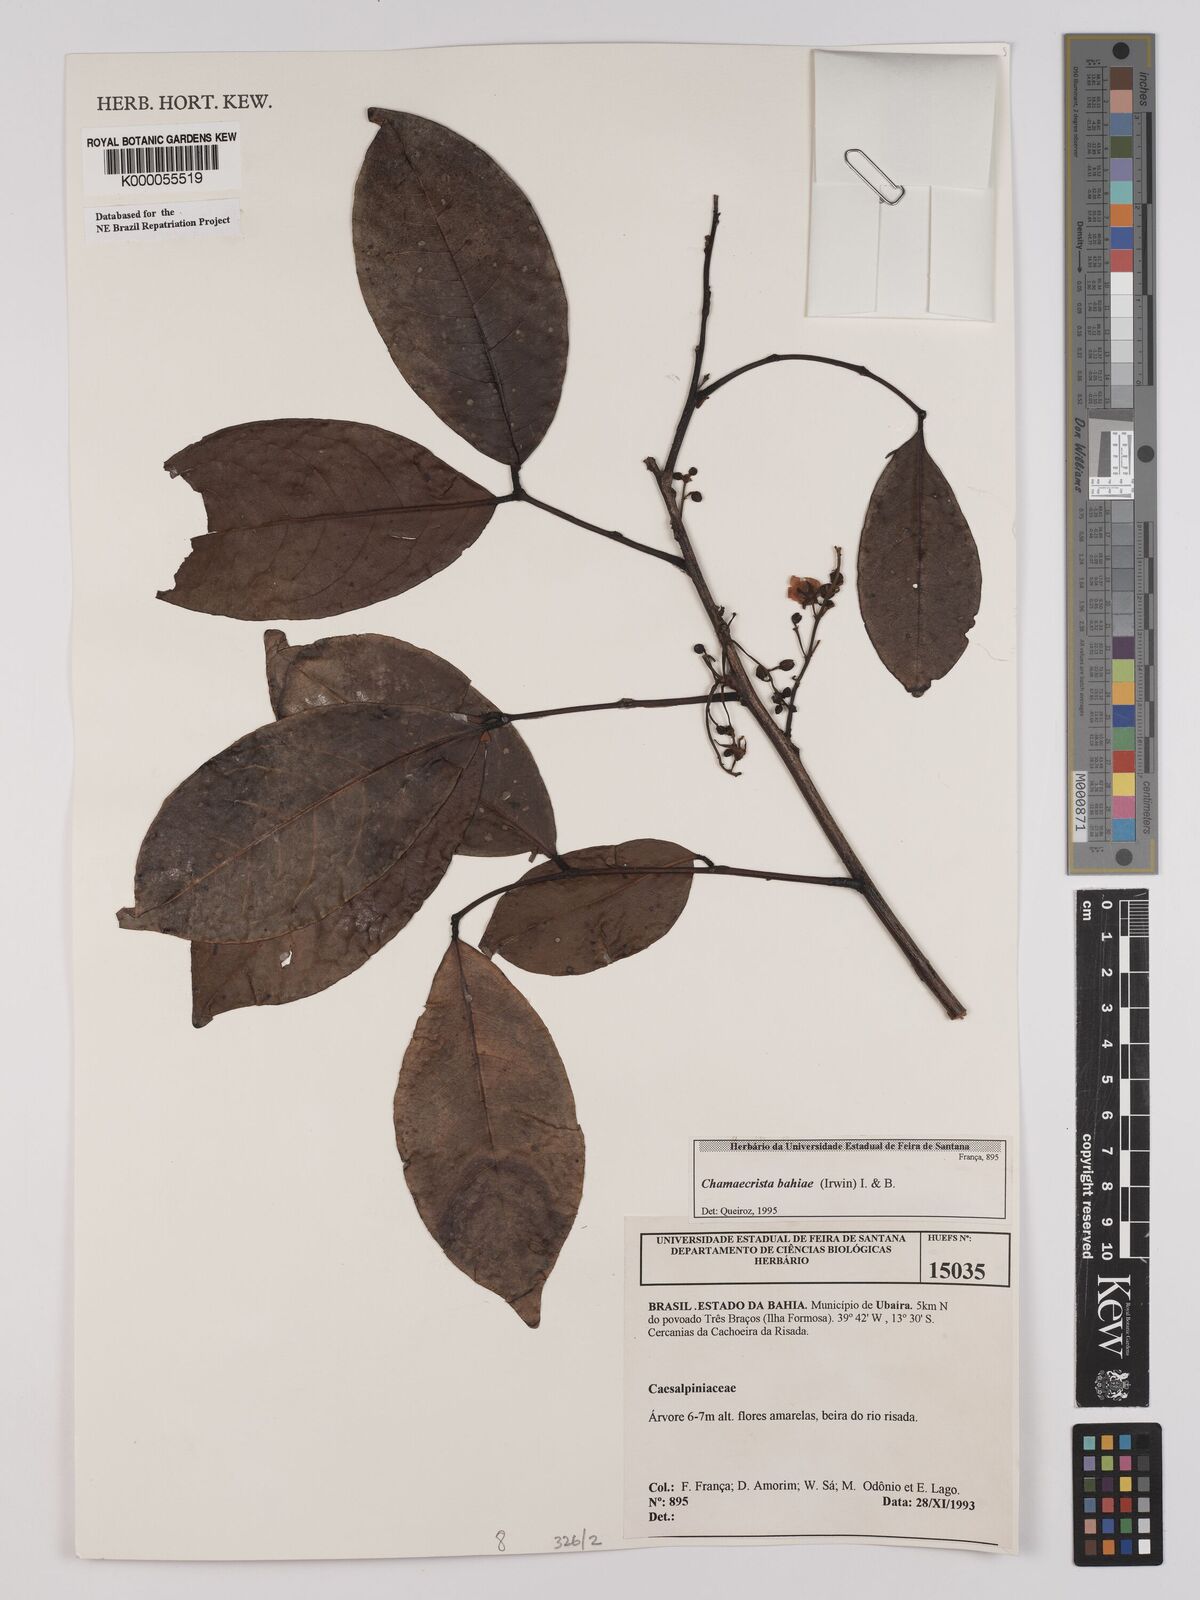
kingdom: Plantae
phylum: Tracheophyta
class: Magnoliopsida
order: Fabales
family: Fabaceae
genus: Chamaecrista
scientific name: Chamaecrista bahiae
